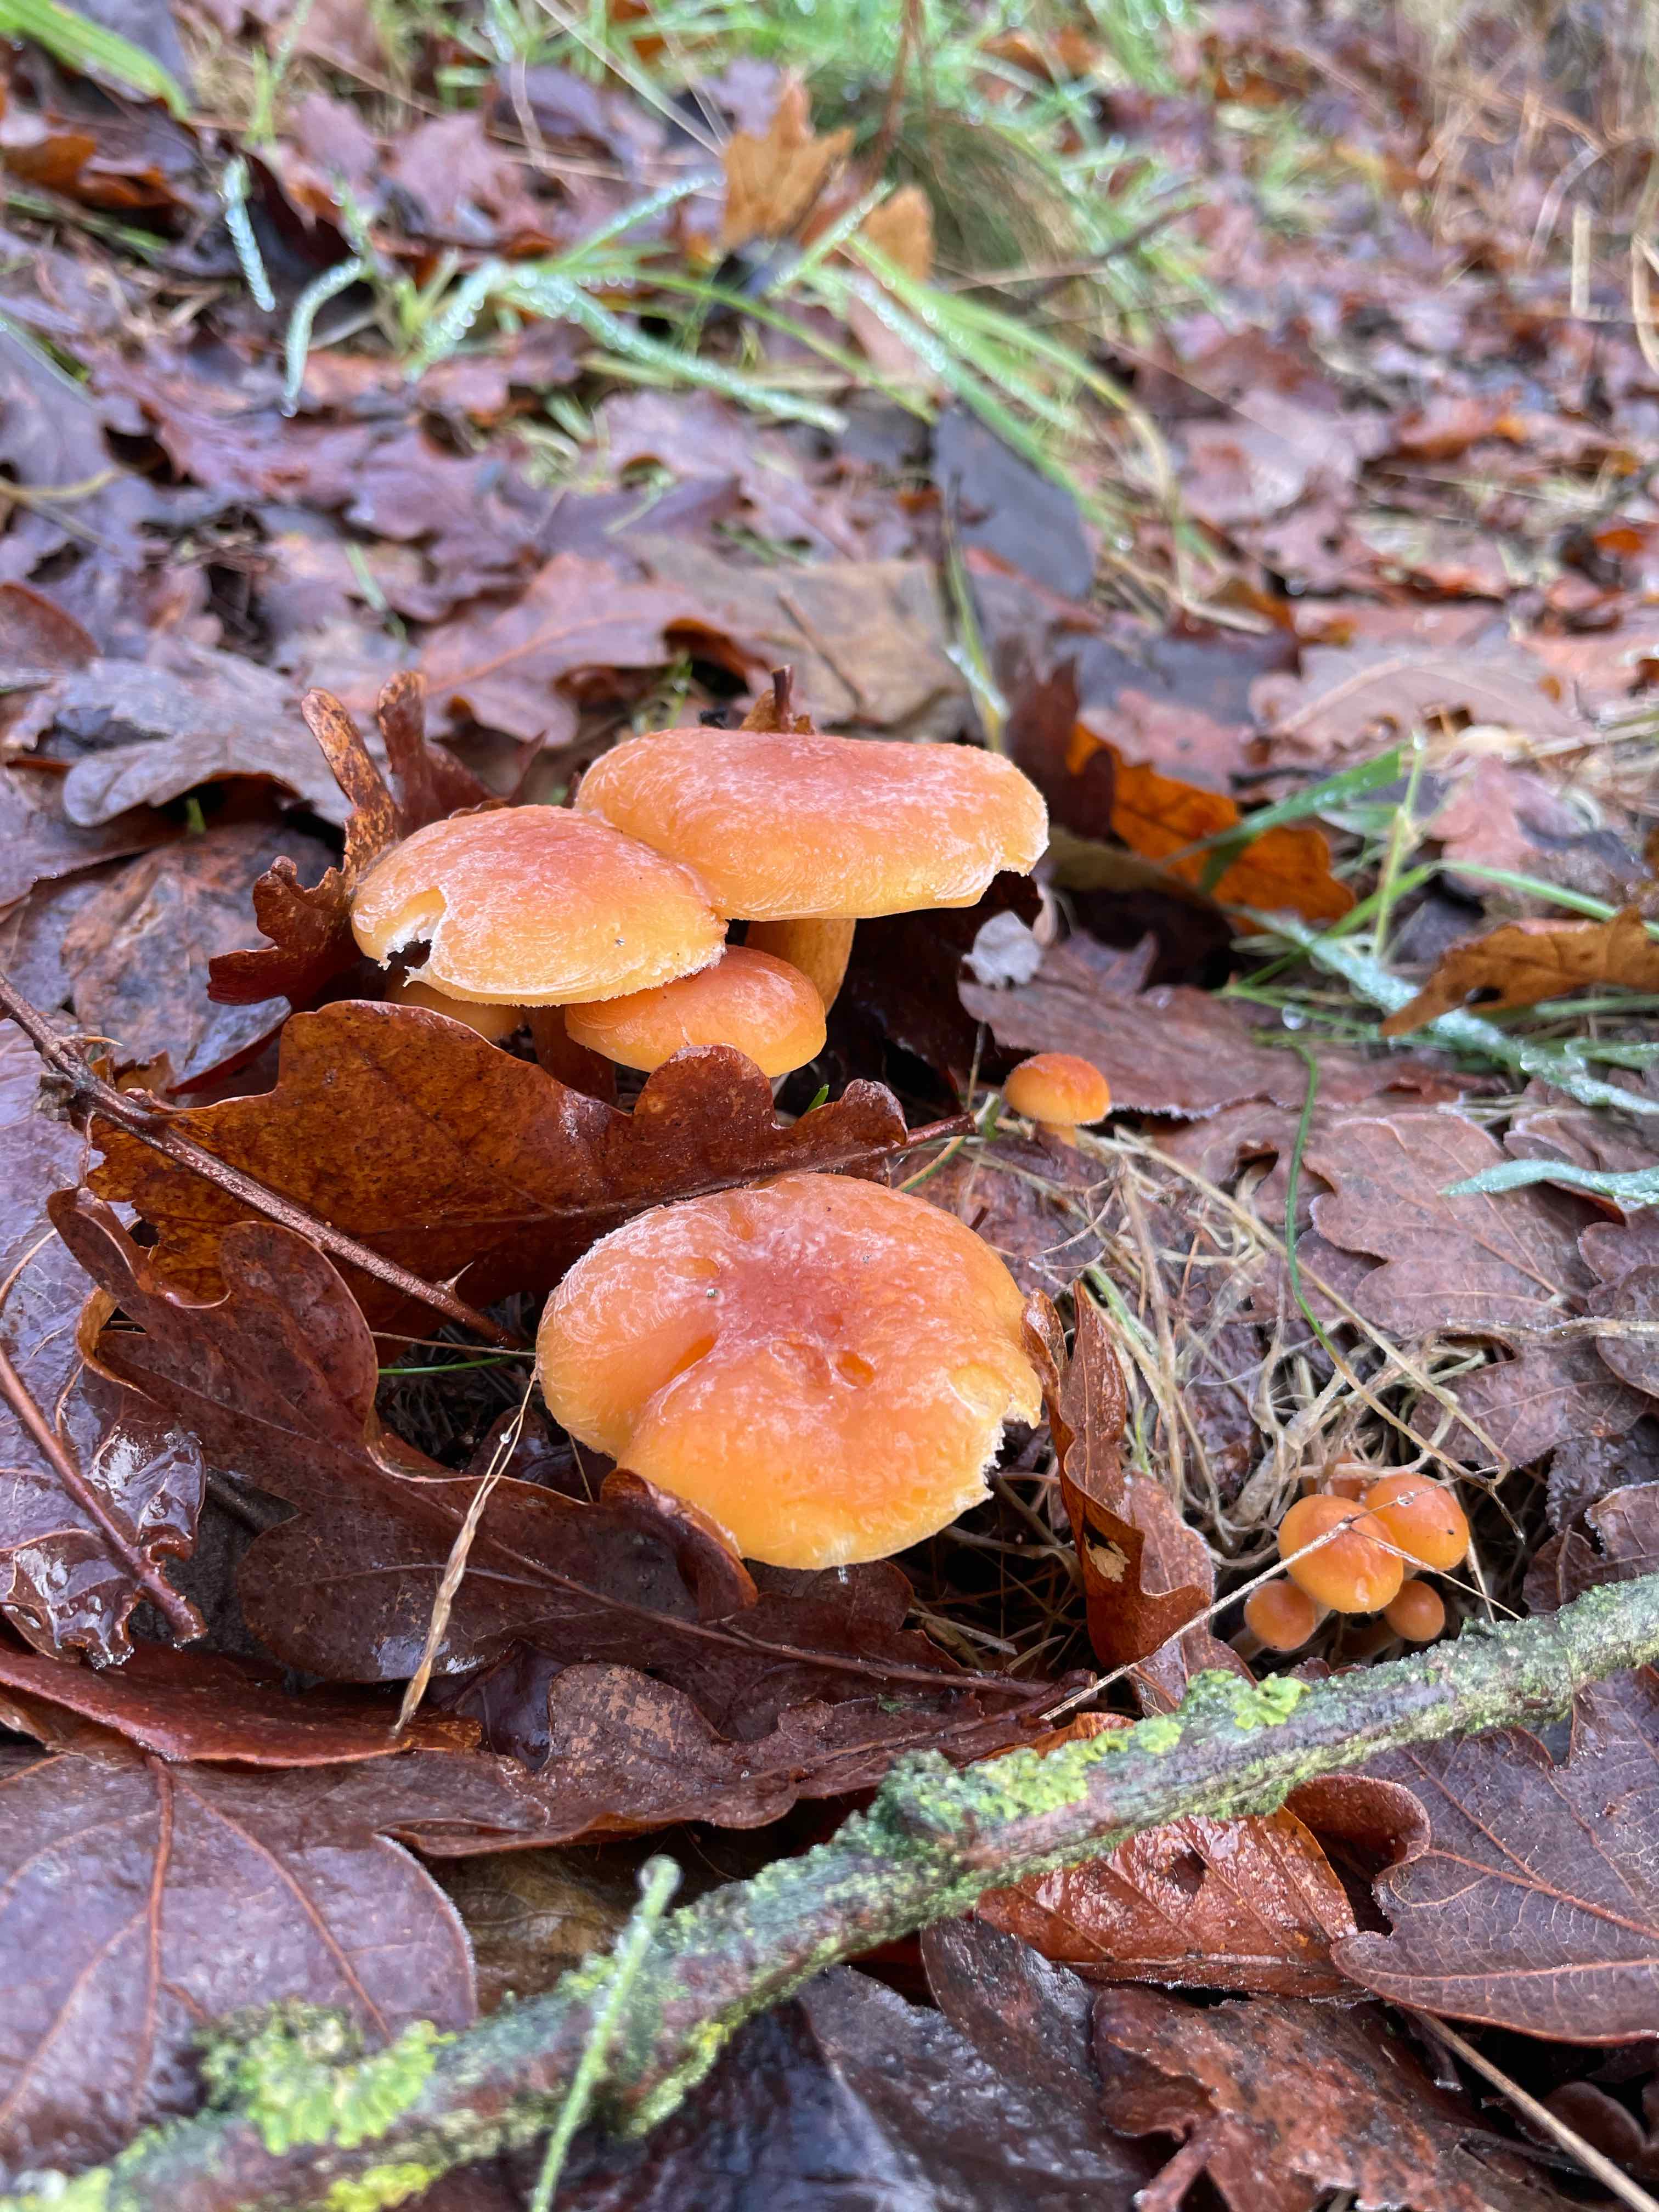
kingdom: Fungi
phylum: Basidiomycota
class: Agaricomycetes
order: Agaricales
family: Physalacriaceae
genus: Flammulina
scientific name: Flammulina velutipes
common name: gul fløjlsfod
